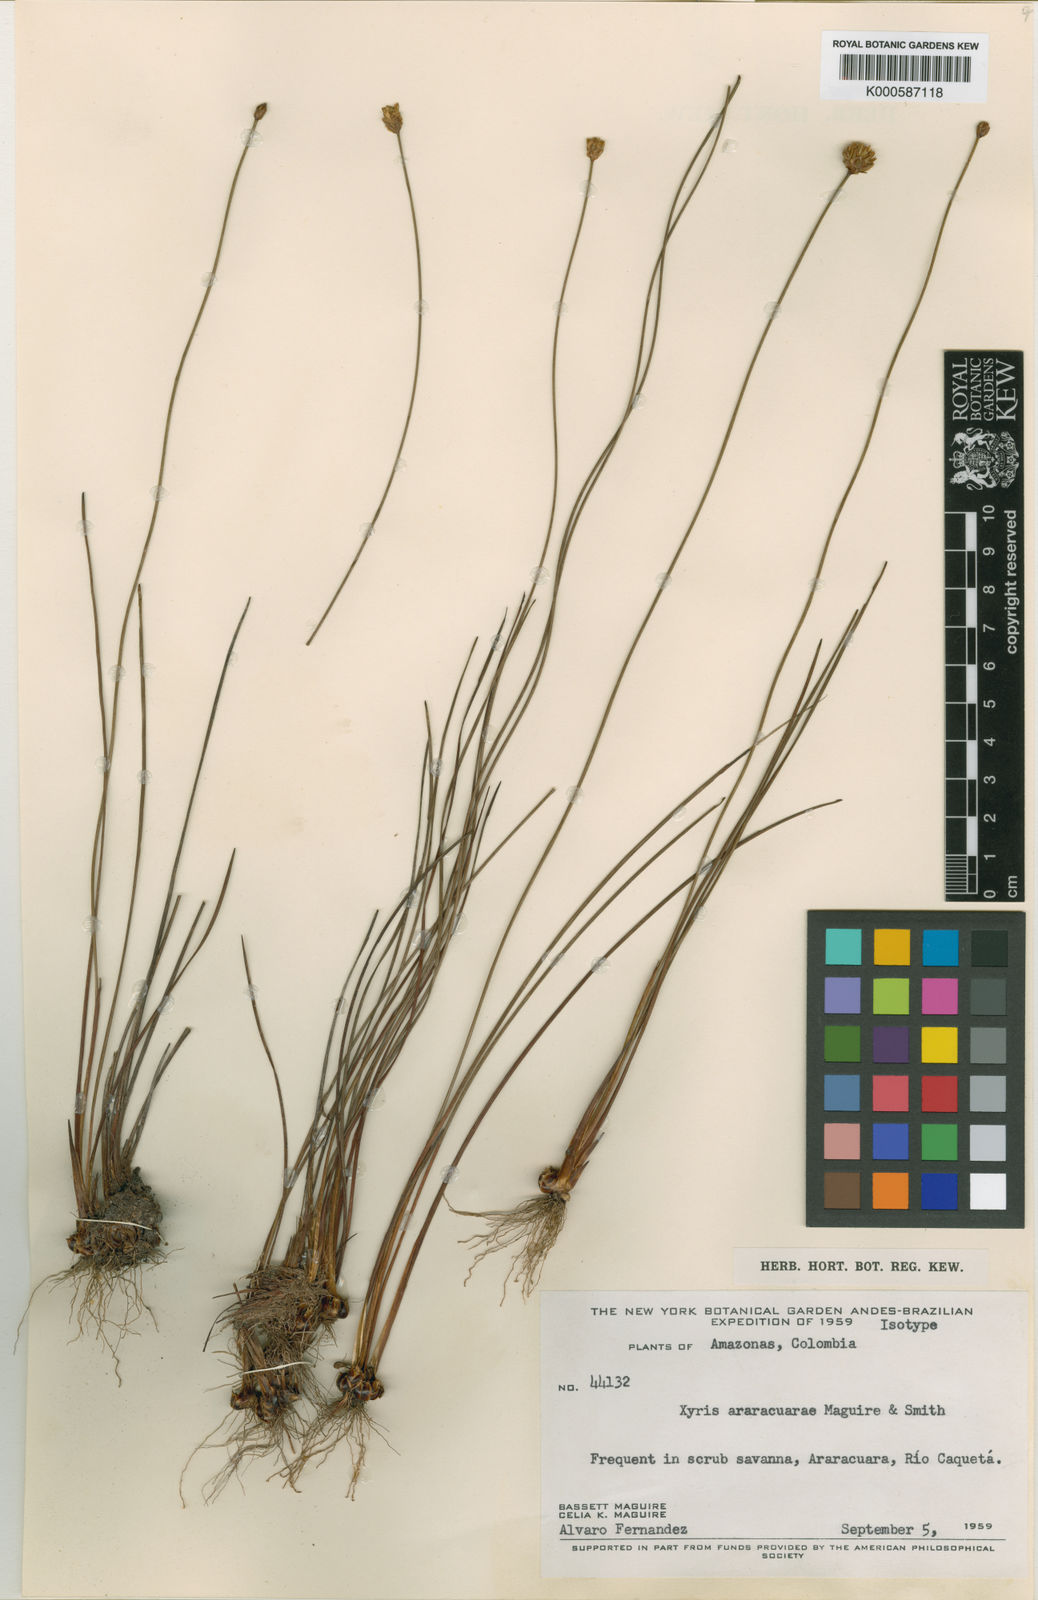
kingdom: Plantae
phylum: Tracheophyta
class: Liliopsida
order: Poales
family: Xyridaceae
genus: Xyris
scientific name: Xyris araracuarae
